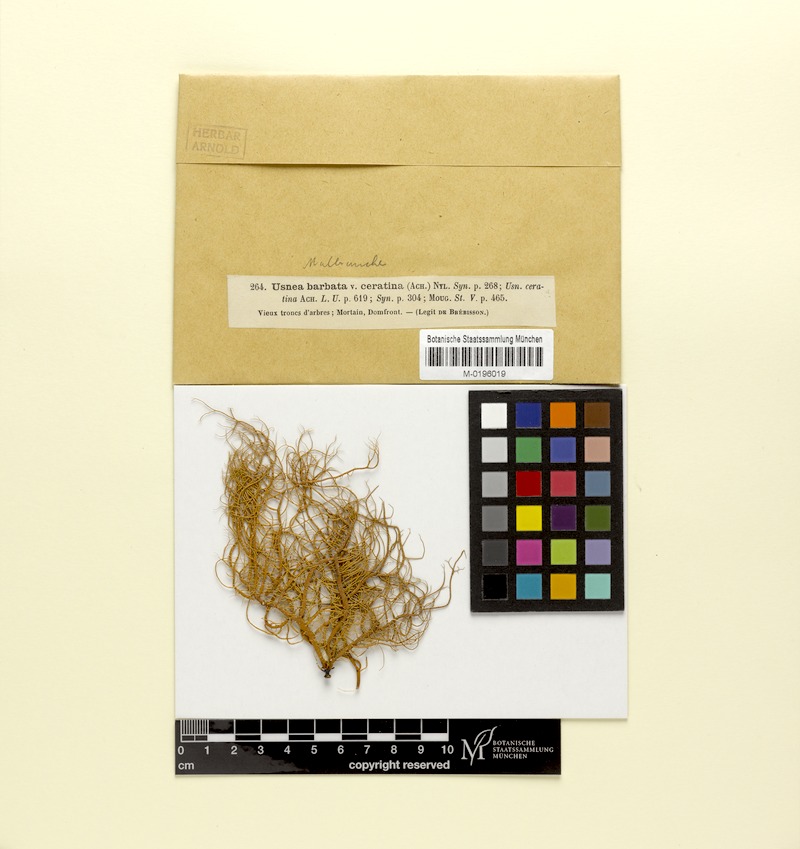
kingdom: Fungi
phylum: Ascomycota
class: Lecanoromycetes
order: Lecanorales
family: Parmeliaceae
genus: Usnea
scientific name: Usnea ceratina
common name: Warty beard lichen
